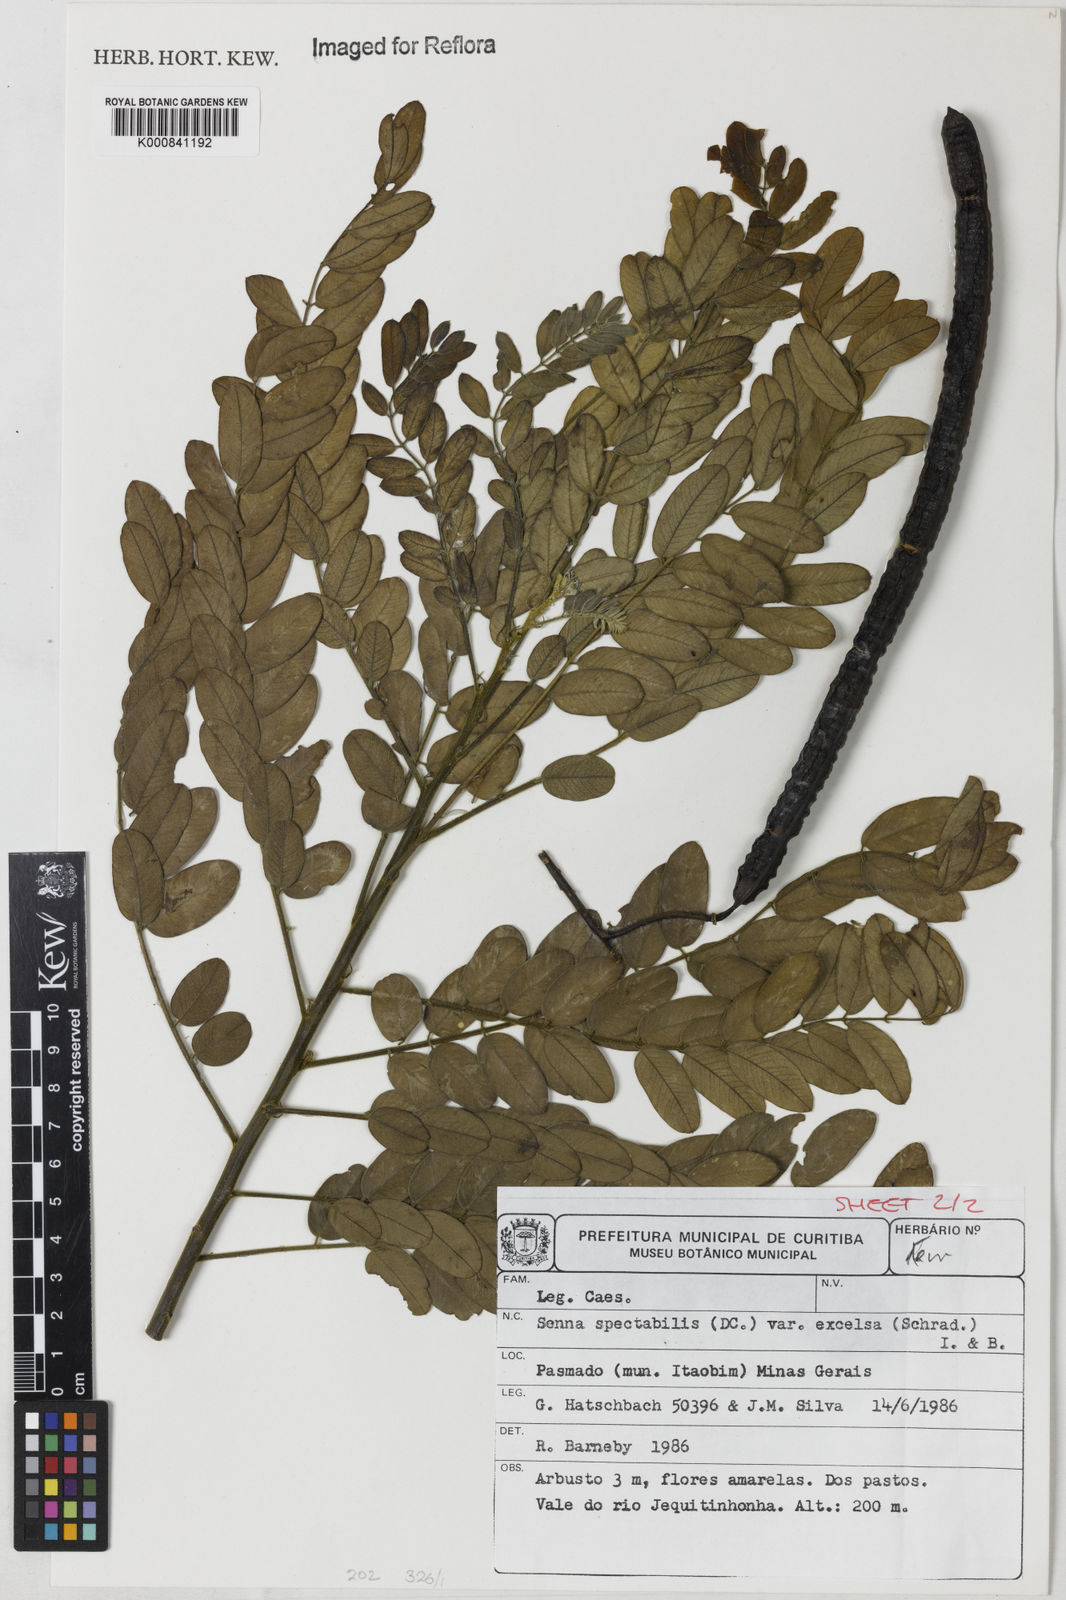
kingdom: Plantae
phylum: Tracheophyta
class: Magnoliopsida
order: Fabales
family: Fabaceae
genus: Senna
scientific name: Senna spectabilis
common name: Casia amarilla
